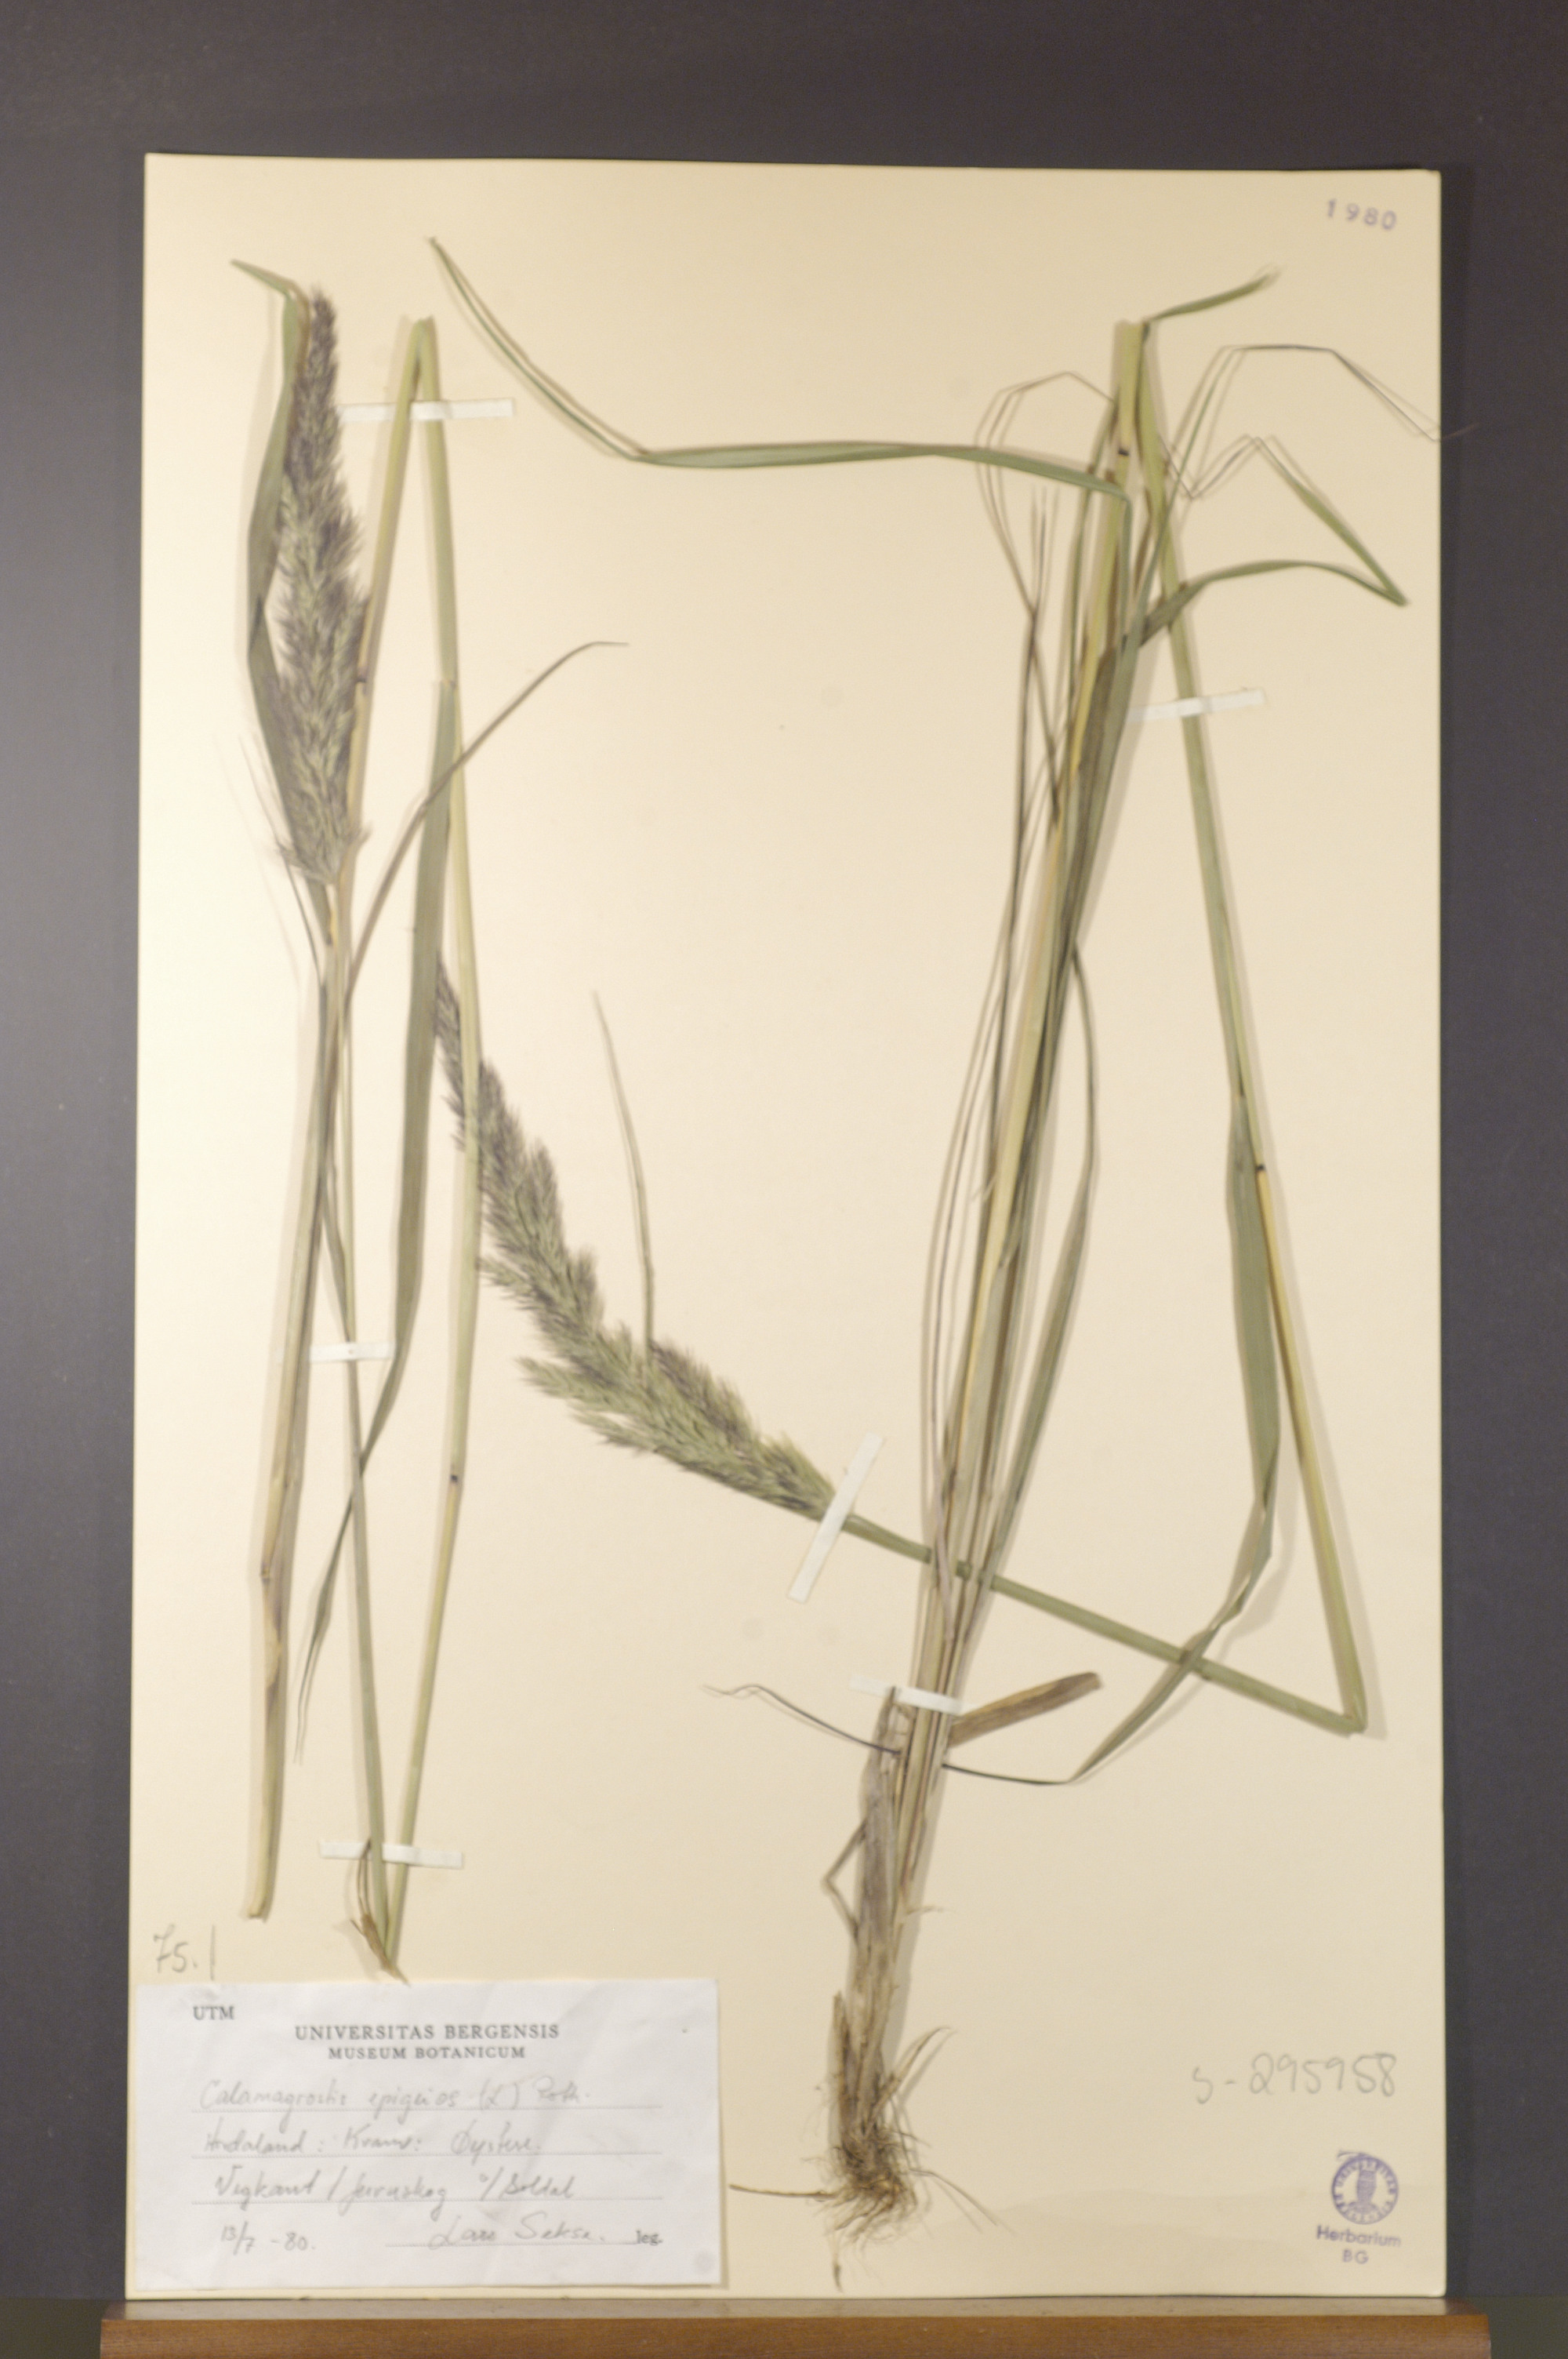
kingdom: Plantae
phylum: Tracheophyta
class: Liliopsida
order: Poales
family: Poaceae
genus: Calamagrostis
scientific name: Calamagrostis epigejos
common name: Wood small-reed
